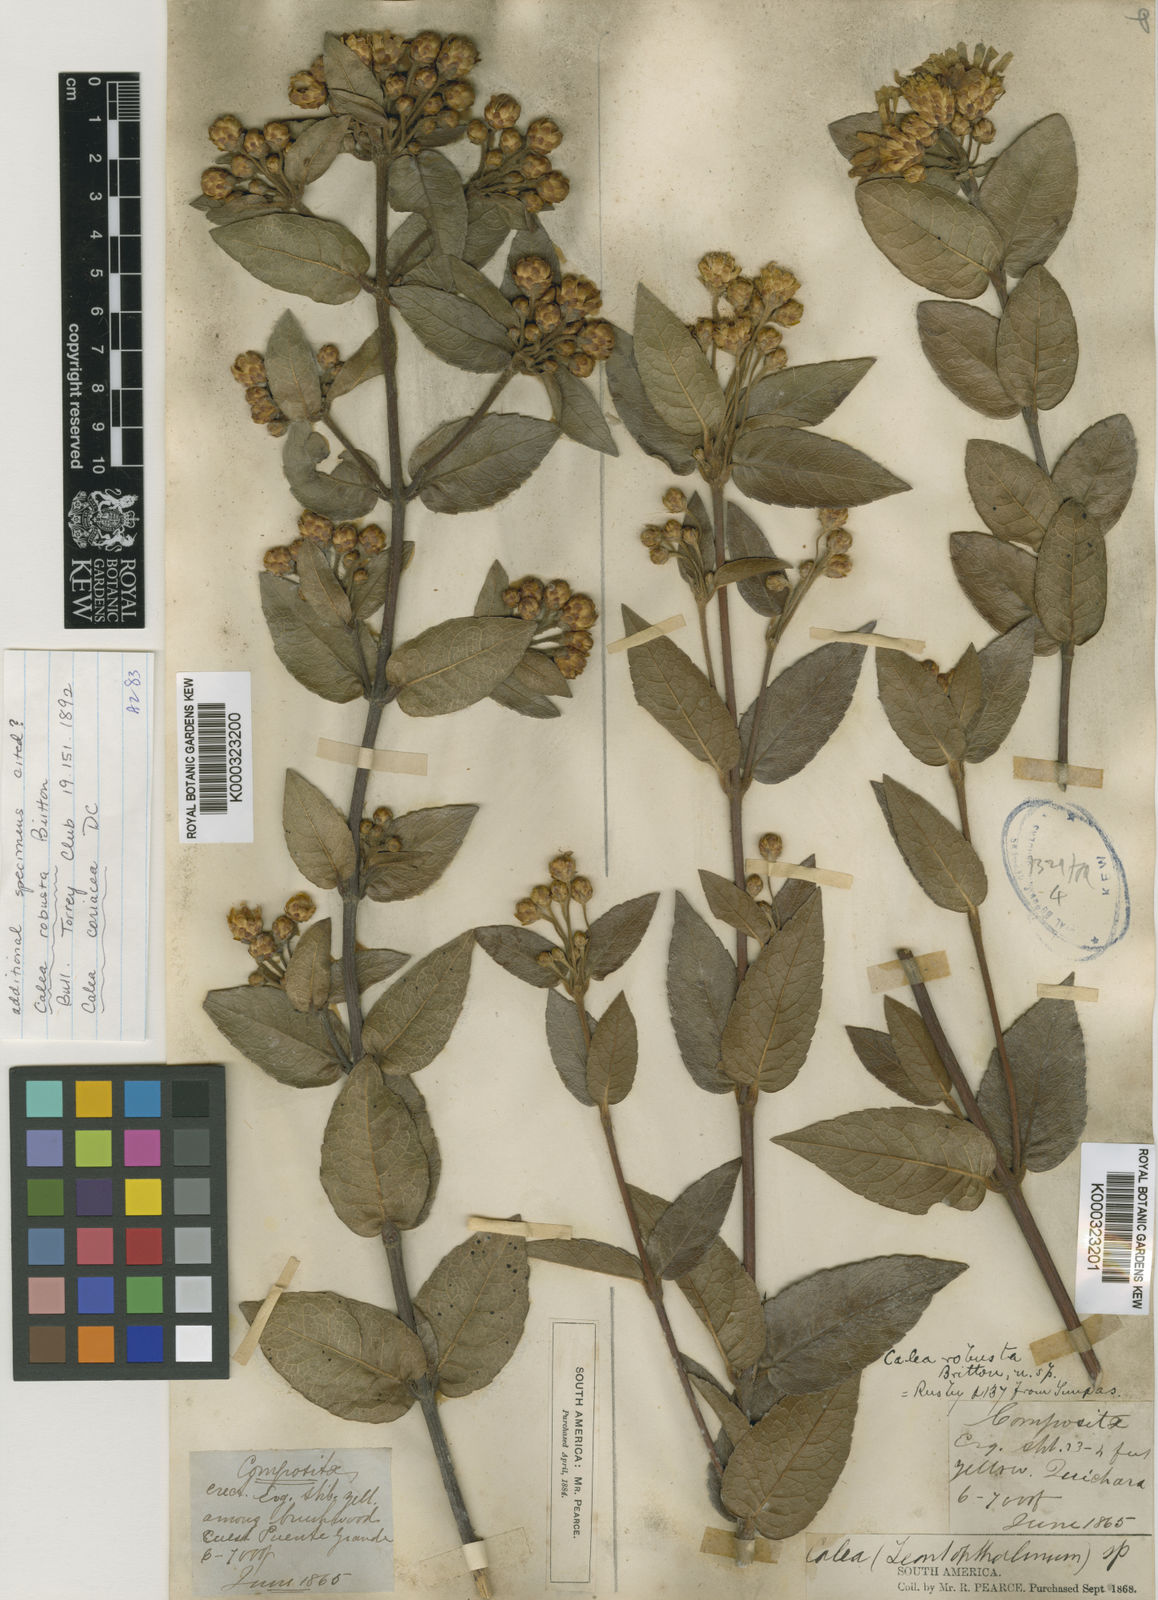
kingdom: Plantae
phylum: Tracheophyta
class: Magnoliopsida
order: Asterales
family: Asteraceae
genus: Calea
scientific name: Calea coriacea
